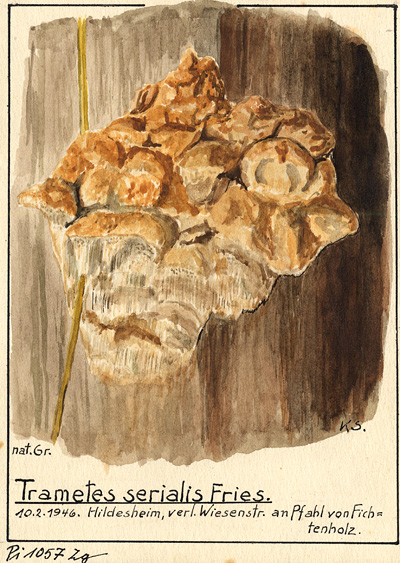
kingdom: Fungi
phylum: Basidiomycota
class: Agaricomycetes
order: Polyporales
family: Fomitopsidaceae
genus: Neoantrodia
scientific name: Neoantrodia serialis
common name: Serried porecrust
